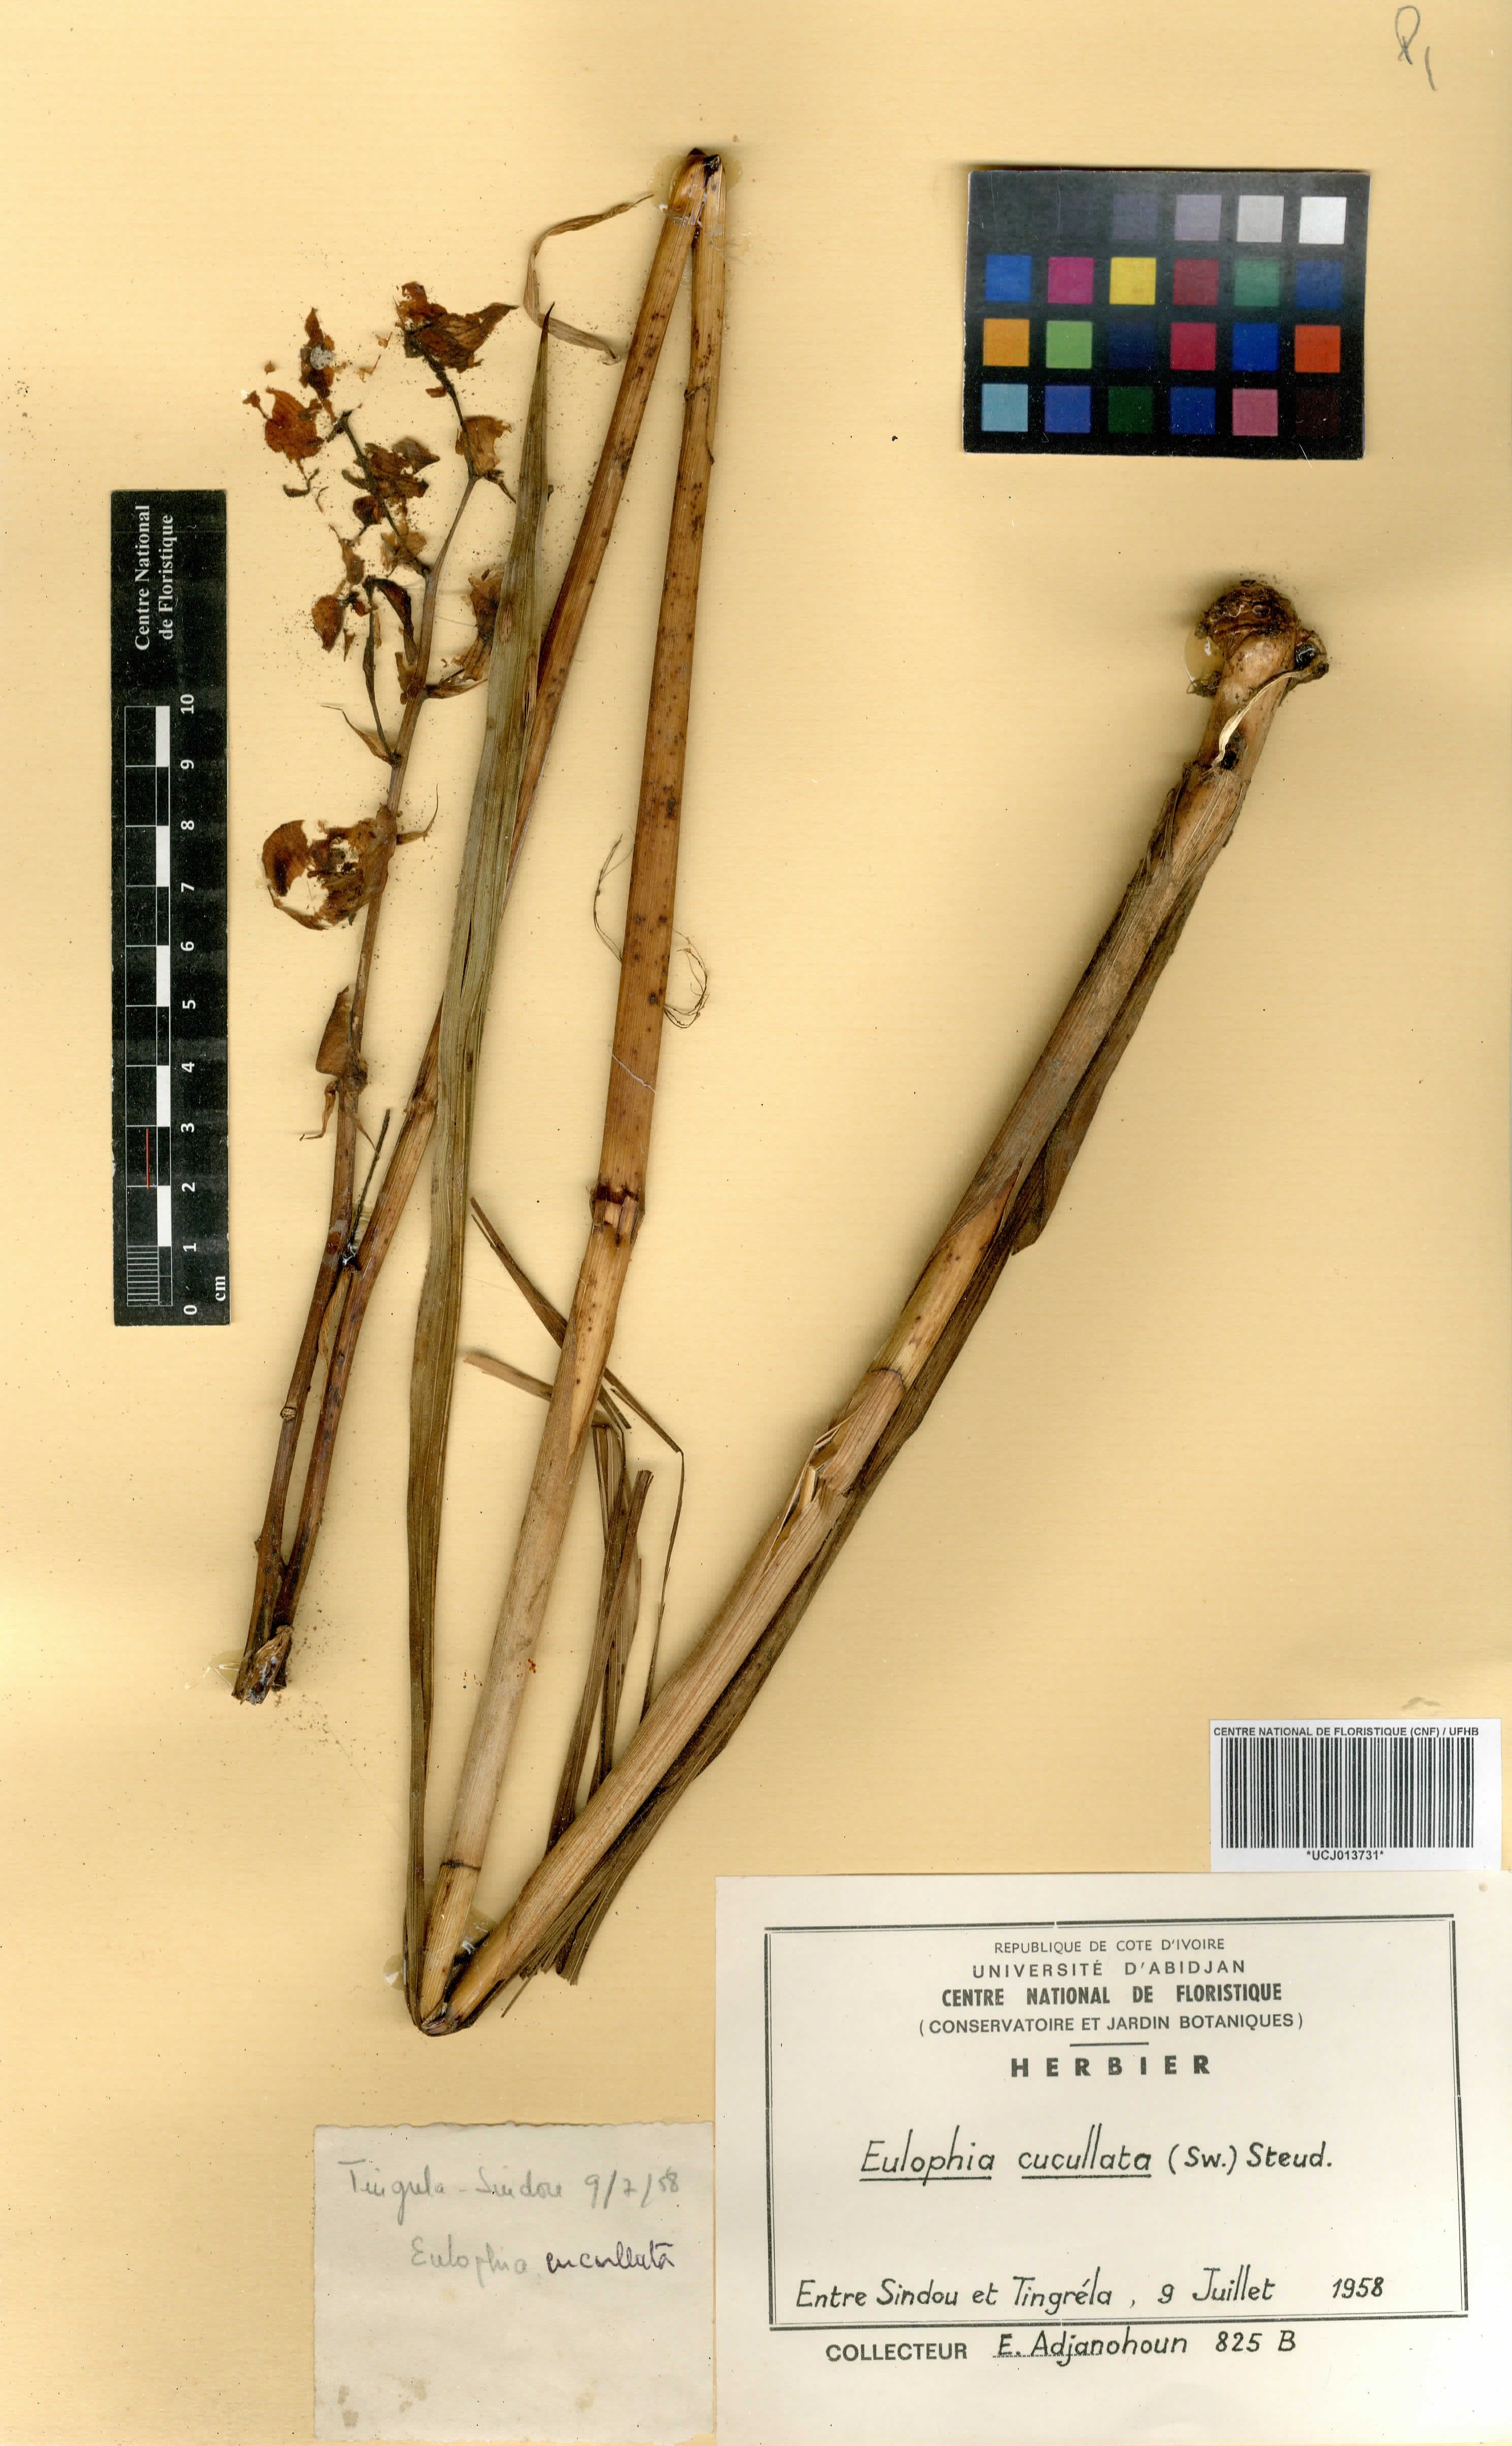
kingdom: Plantae
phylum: Tracheophyta
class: Liliopsida
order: Asparagales
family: Orchidaceae
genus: Eulophia
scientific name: Eulophia cucullata
